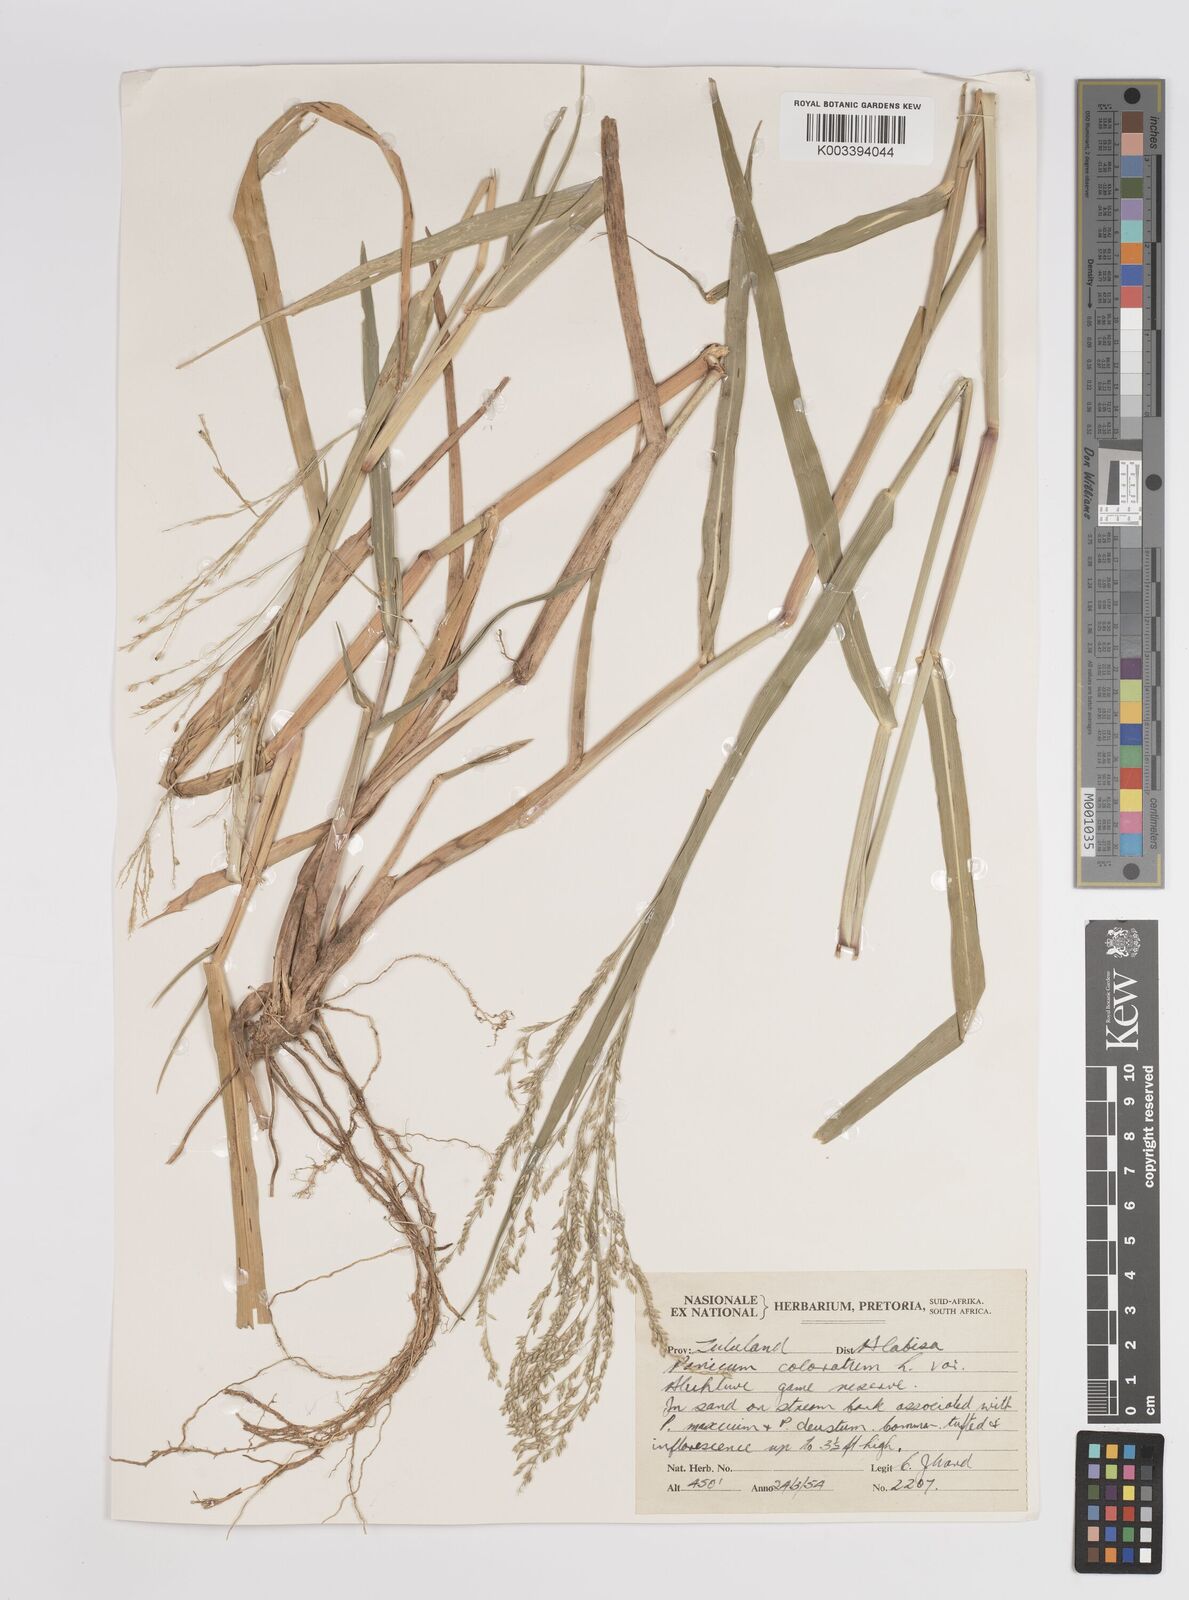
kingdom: Plantae
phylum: Tracheophyta
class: Liliopsida
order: Poales
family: Poaceae
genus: Panicum
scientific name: Panicum coloratum
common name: Kleingrass
